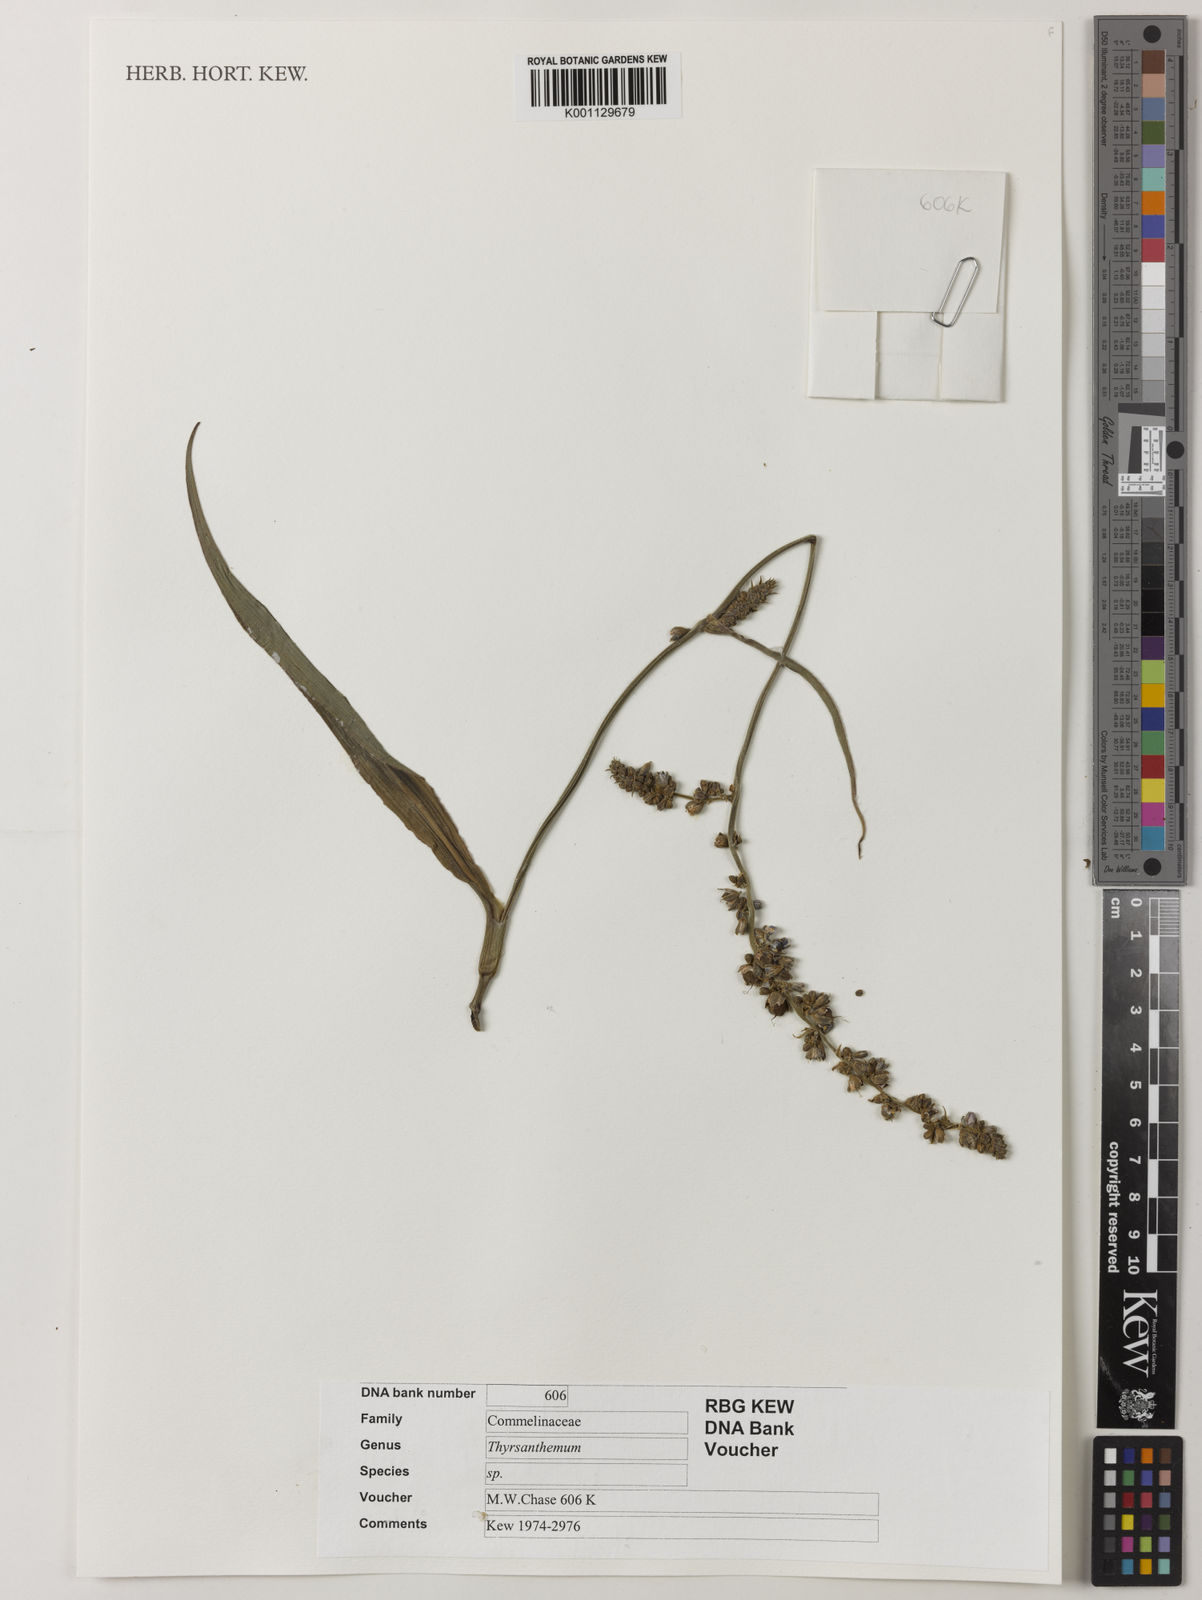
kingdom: Plantae
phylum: Tracheophyta
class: Liliopsida
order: Commelinales
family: Commelinaceae
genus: Thyrsanthemum
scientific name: Thyrsanthemum
